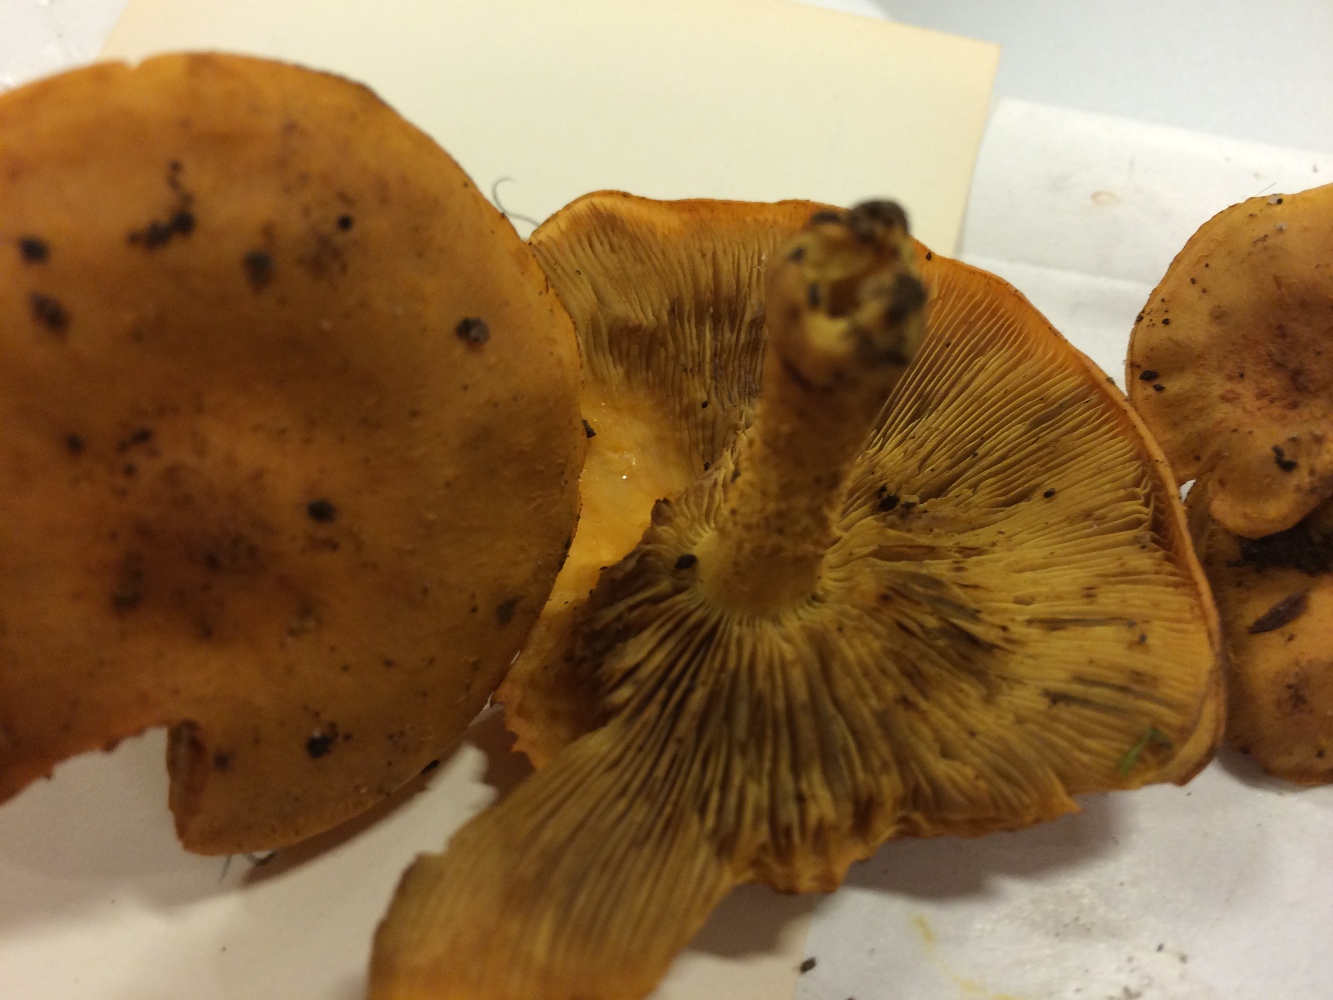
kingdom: Fungi
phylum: Basidiomycota
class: Agaricomycetes
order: Agaricales
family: Strophariaceae
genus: Pholiota
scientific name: Pholiota flammans
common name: flamme-skælhat
